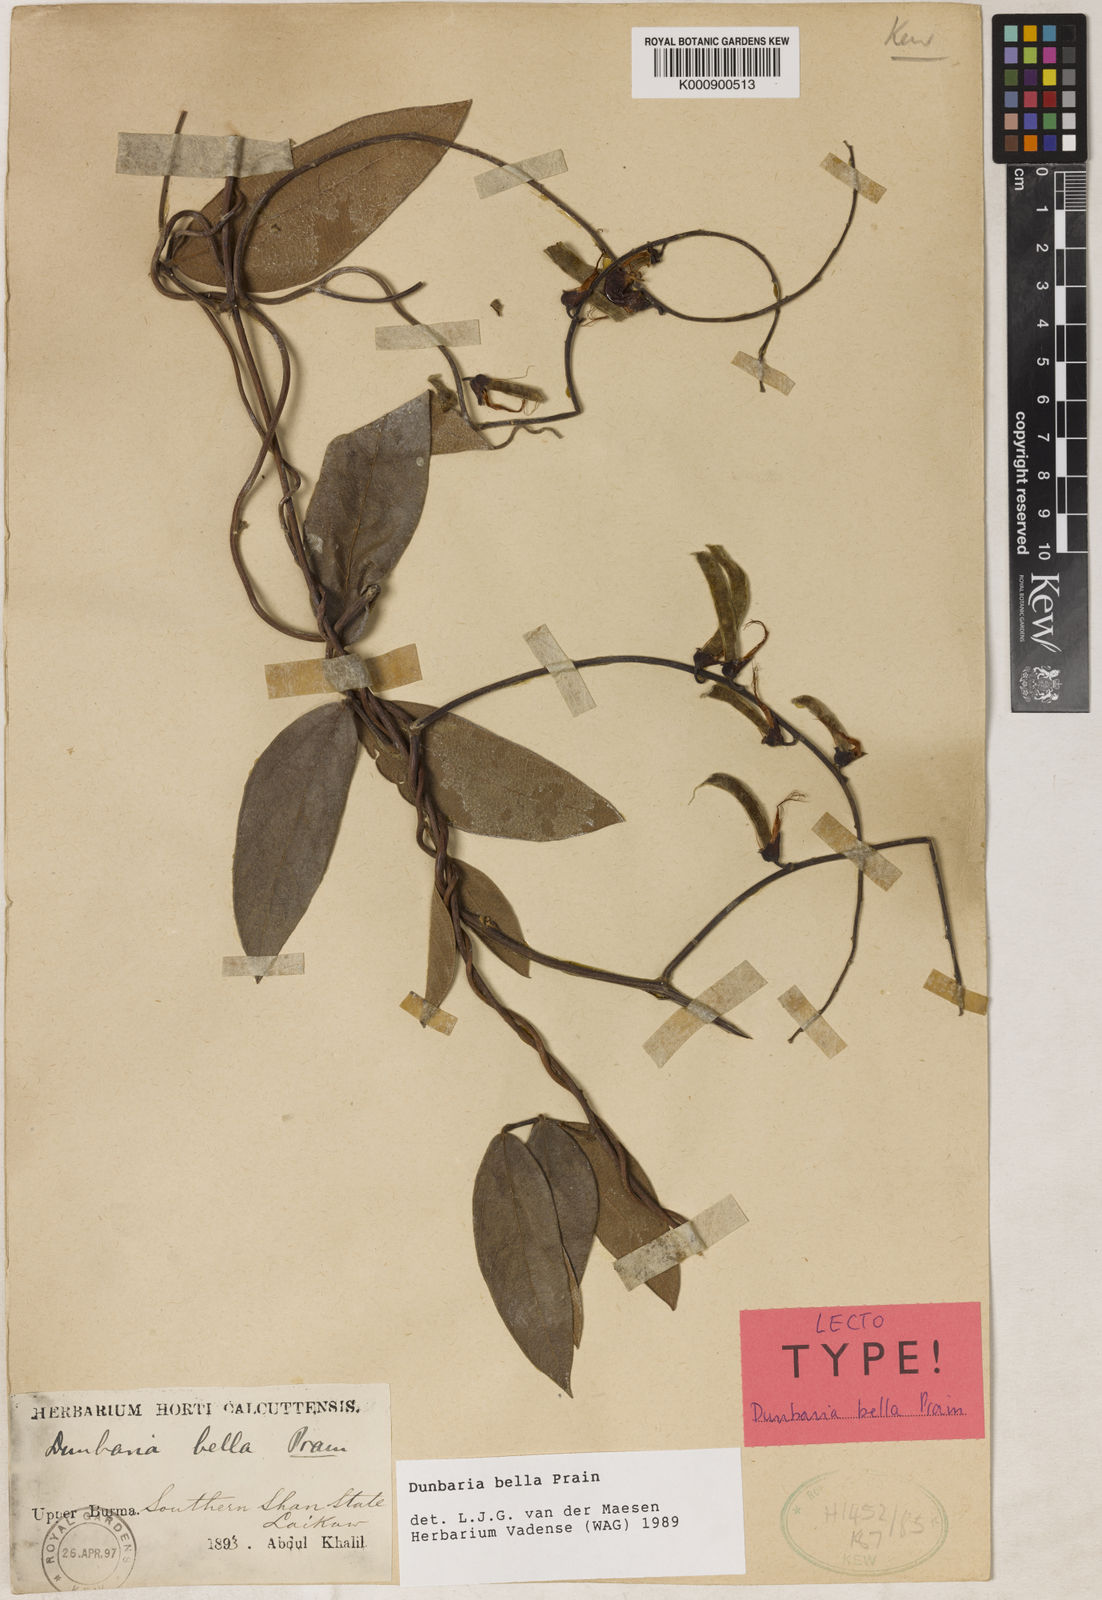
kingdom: Plantae
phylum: Tracheophyta
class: Magnoliopsida
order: Fabales
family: Fabaceae
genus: Dunbaria
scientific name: Dunbaria bella
